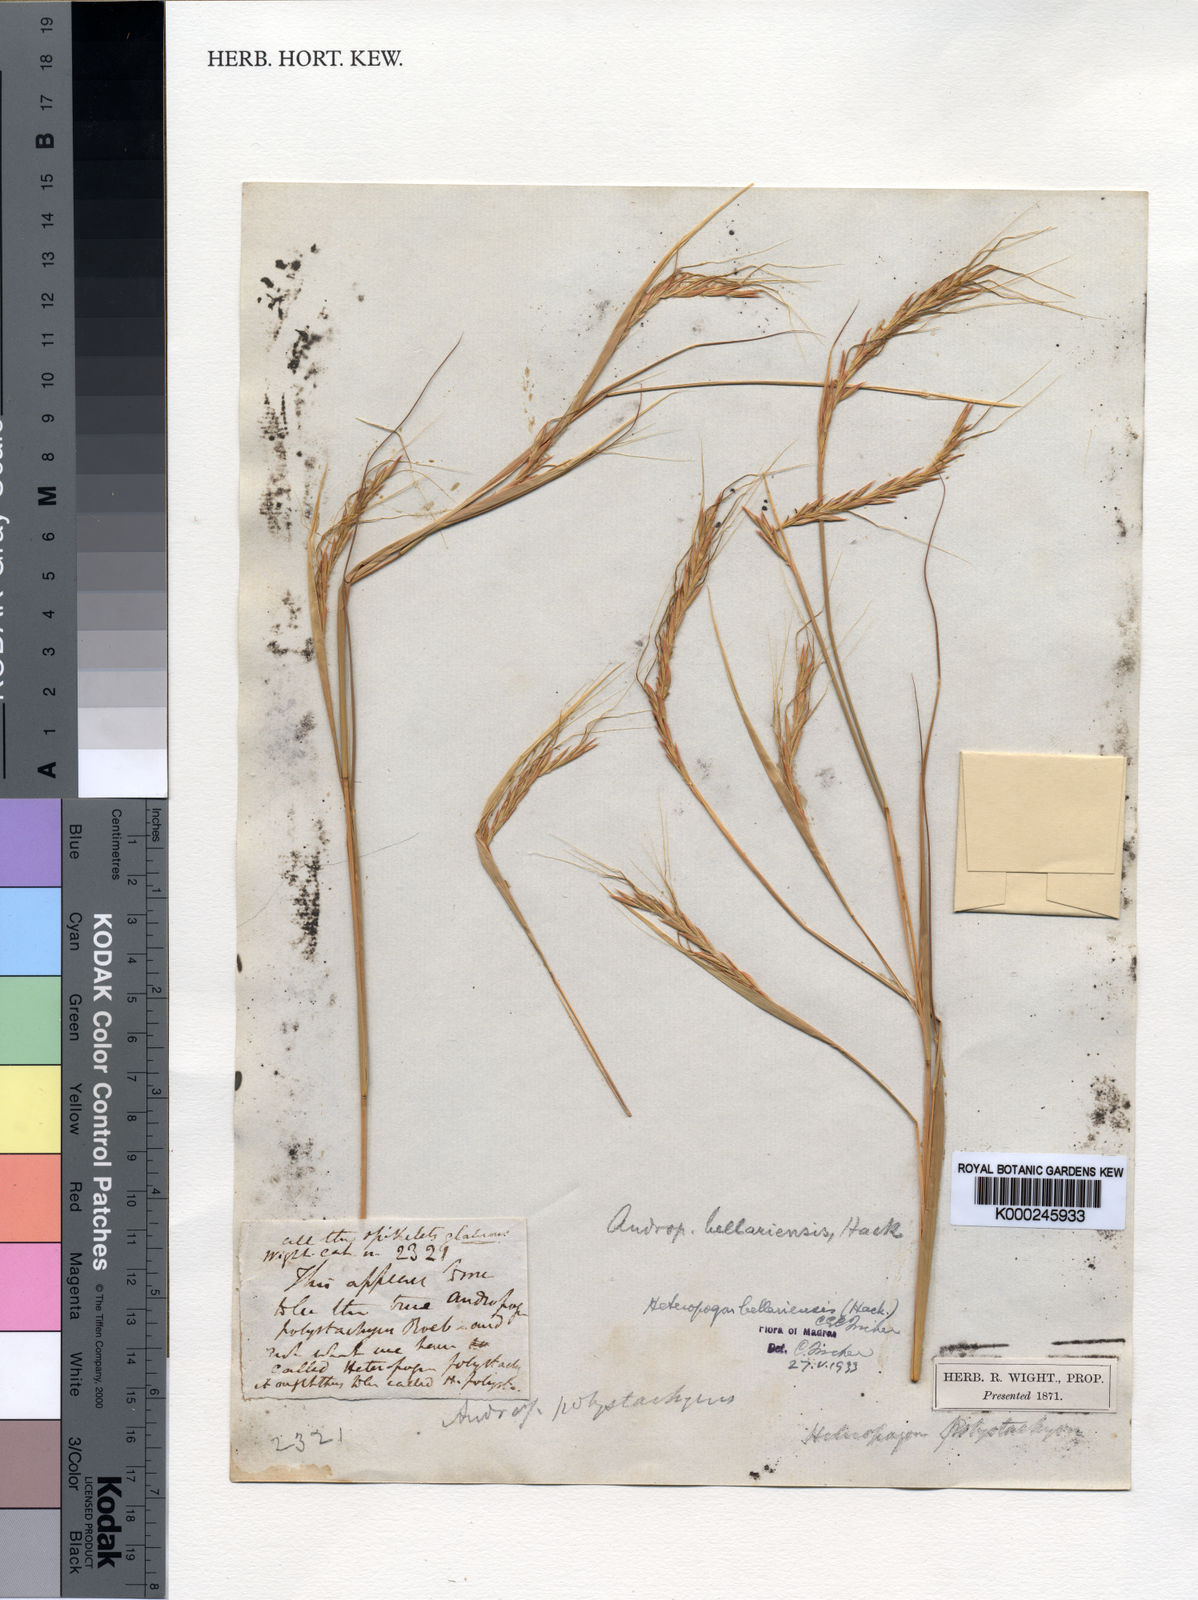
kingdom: Plantae
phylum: Tracheophyta
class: Liliopsida
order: Poales
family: Poaceae
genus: Parahyparrhenia
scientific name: Parahyparrhenia bellariensis
